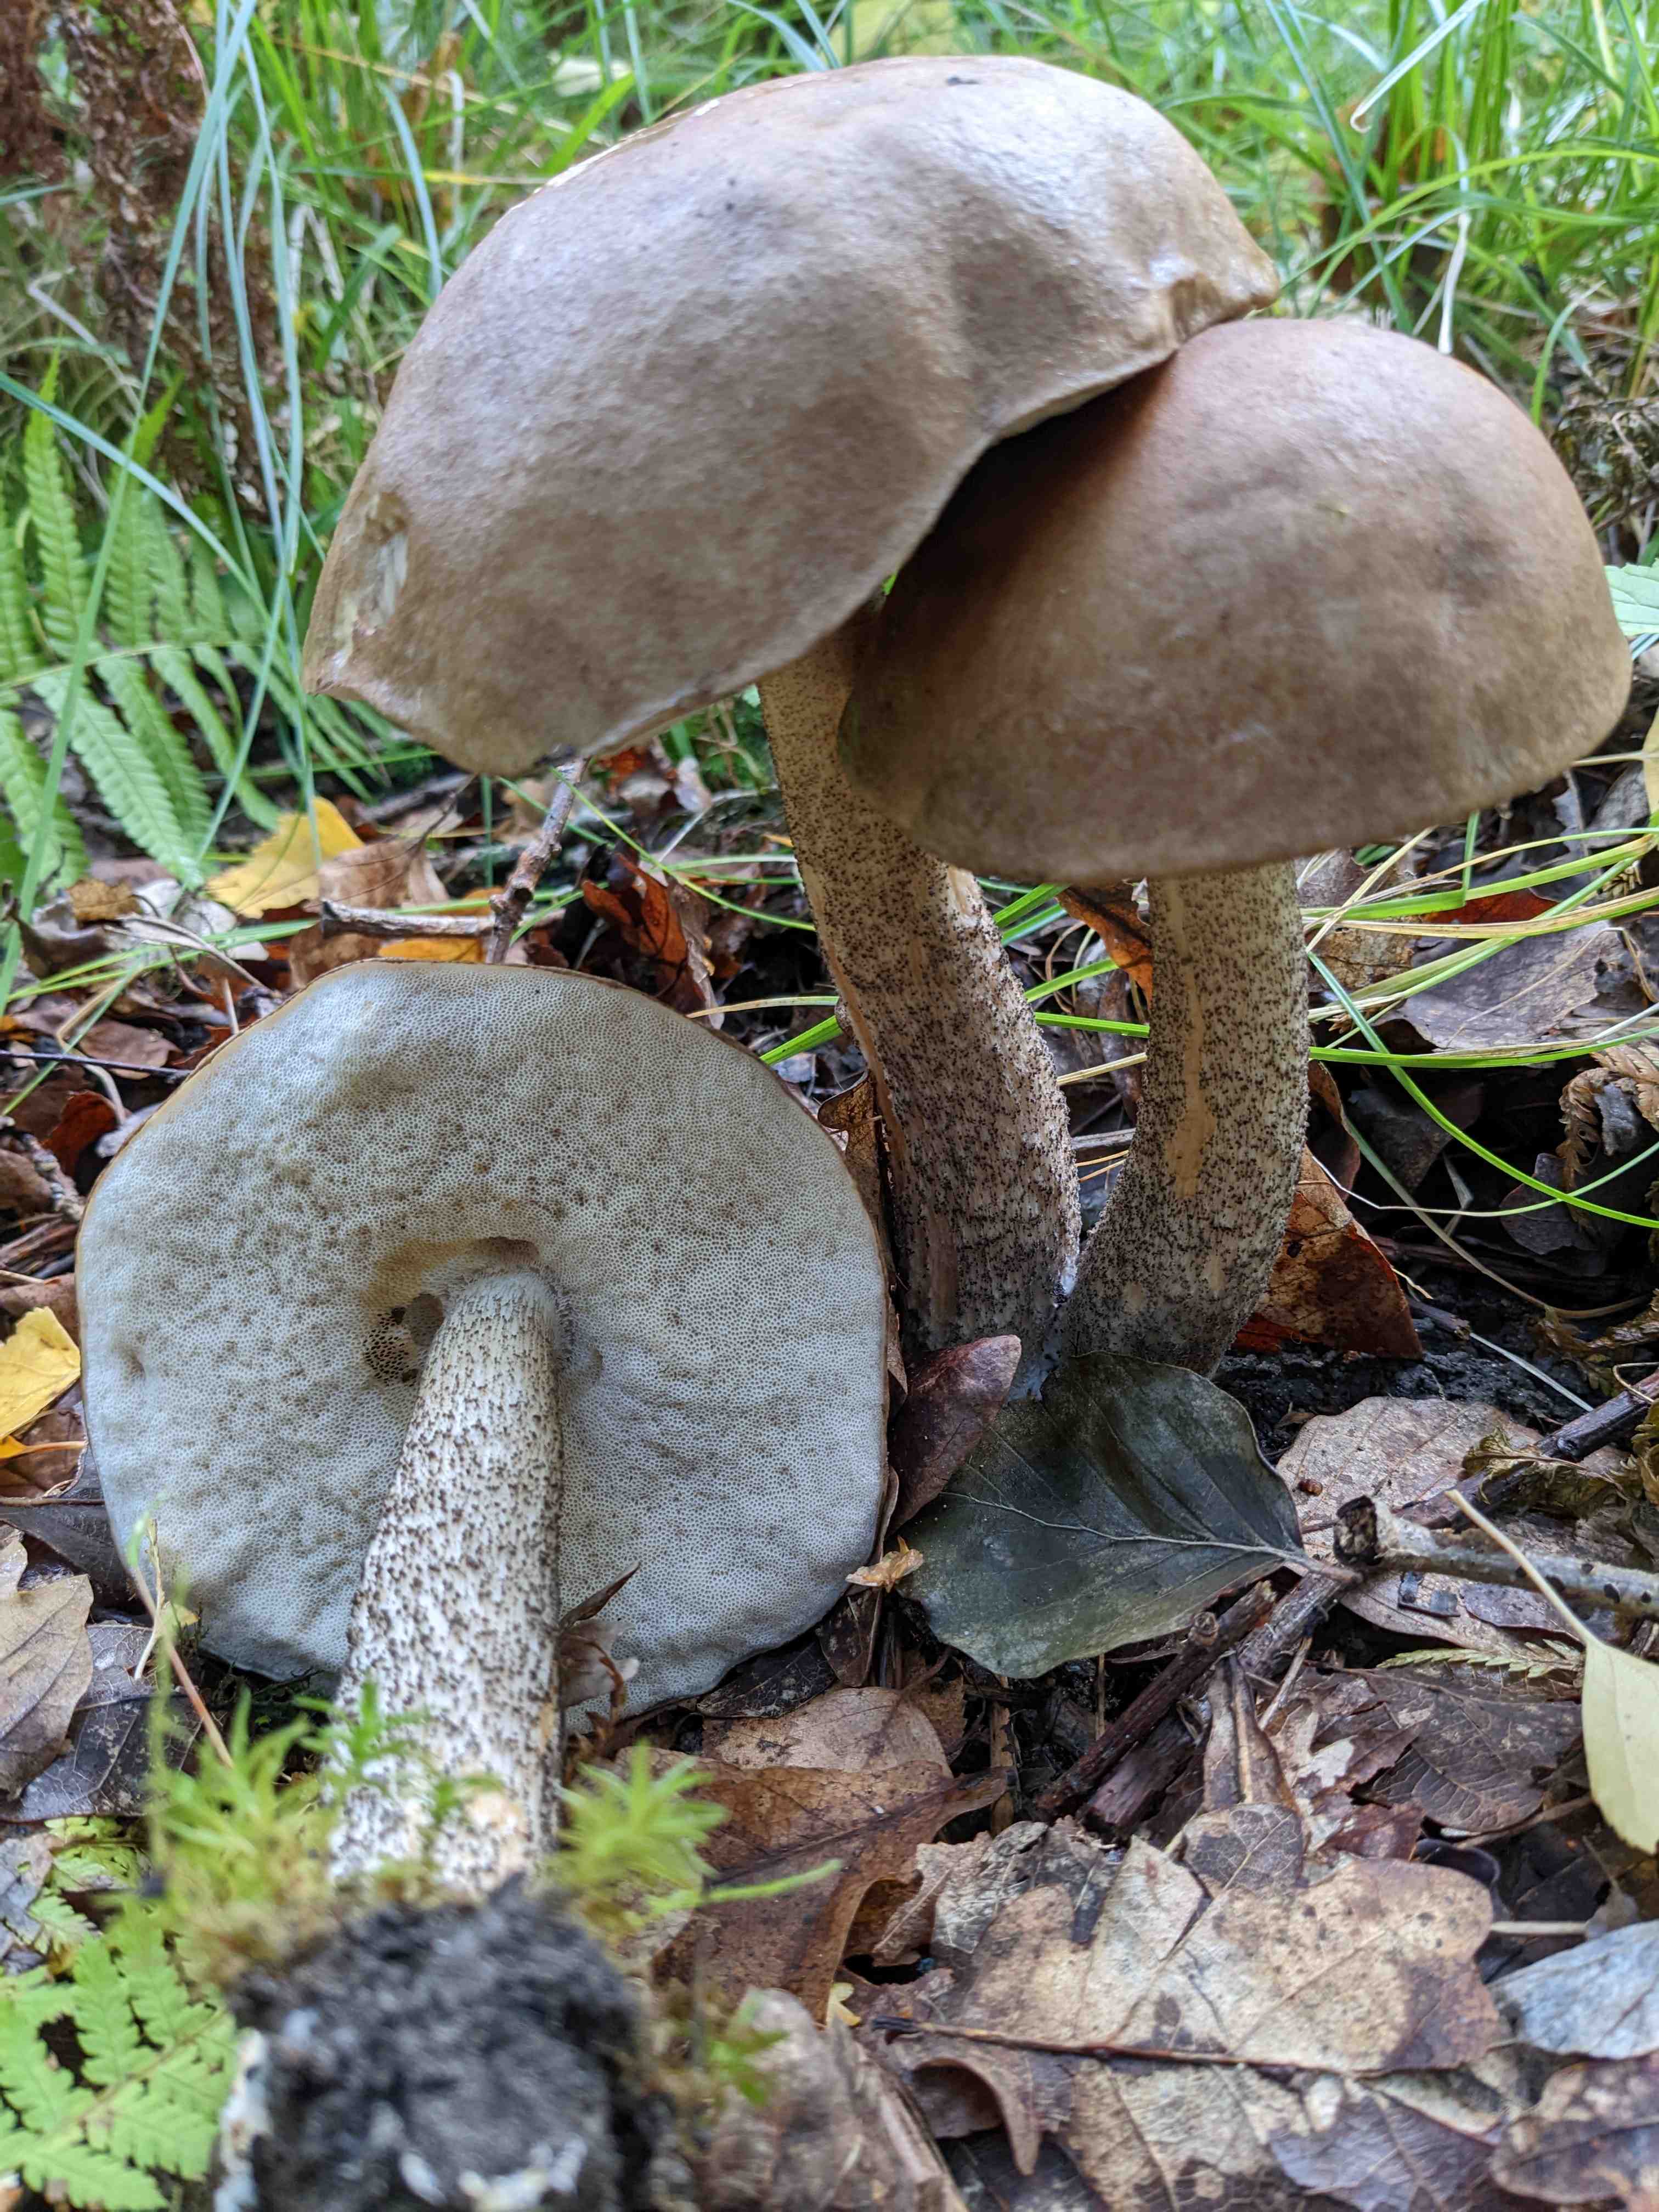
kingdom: Fungi
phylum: Basidiomycota
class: Agaricomycetes
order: Boletales
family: Boletaceae
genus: Leccinum
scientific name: Leccinum
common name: skælrørhat
